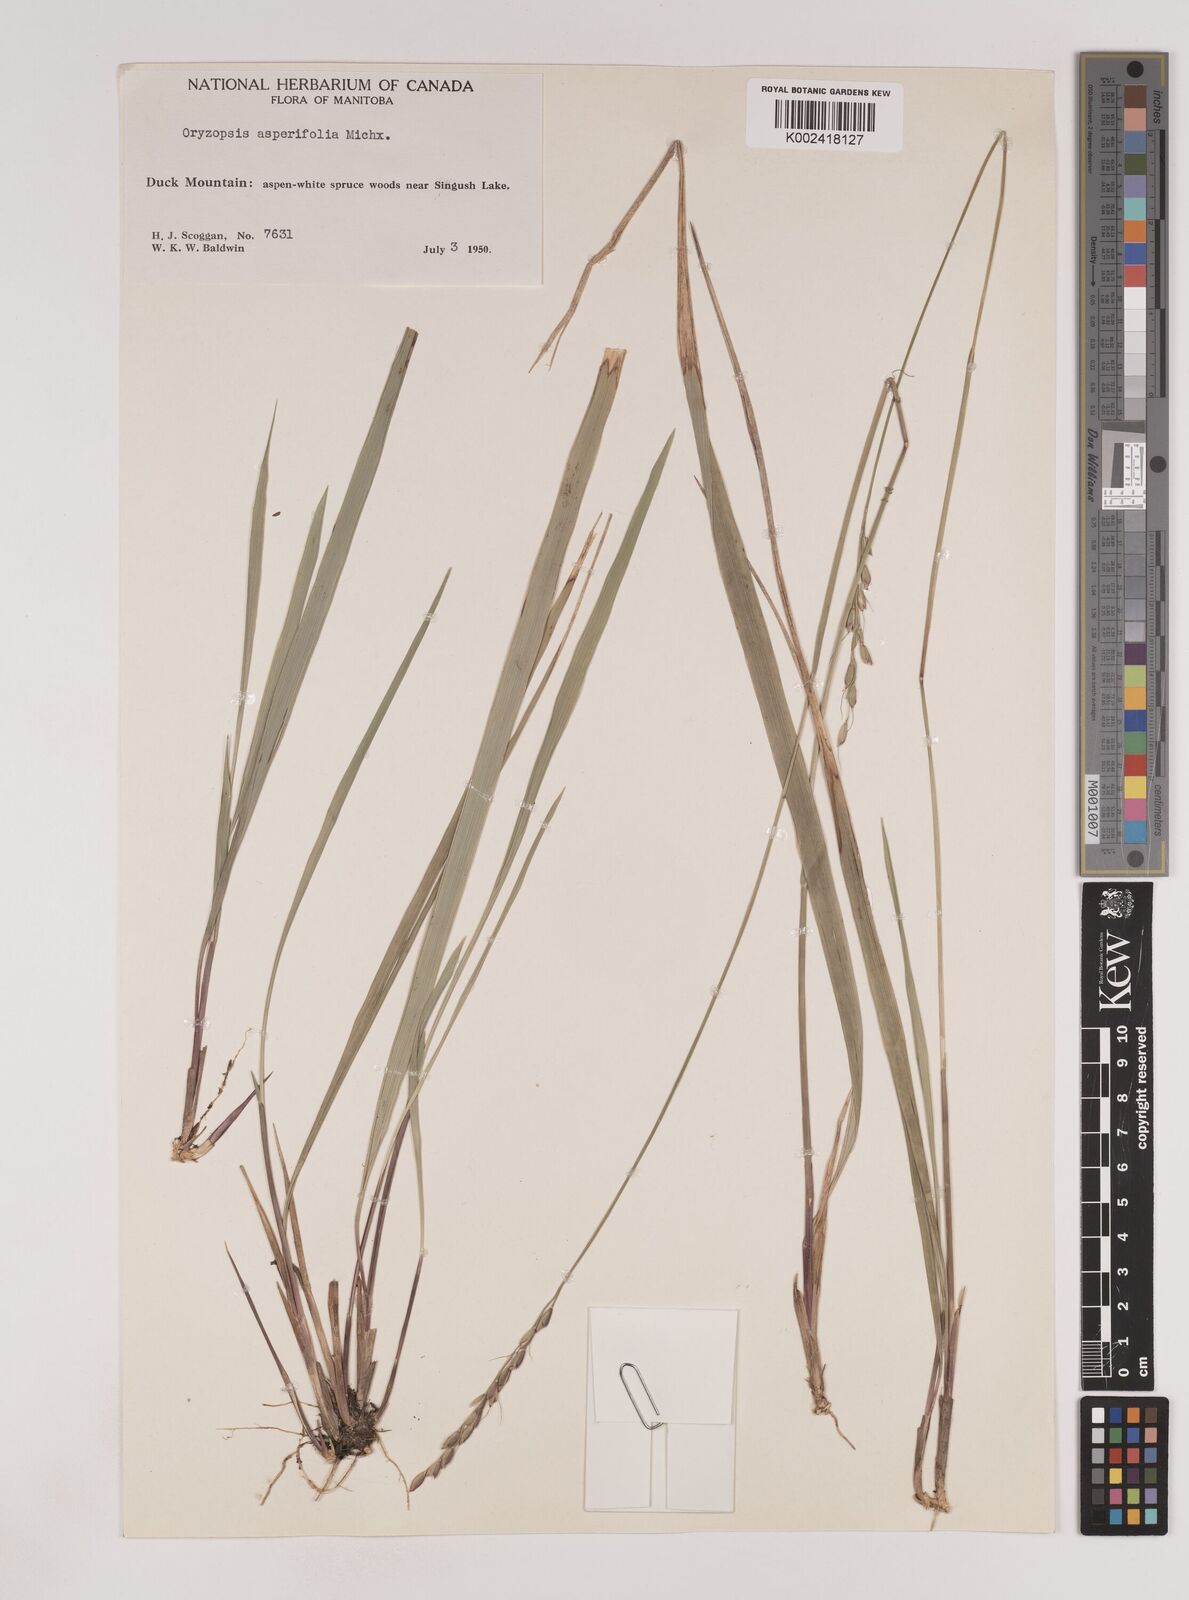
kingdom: Plantae
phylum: Tracheophyta
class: Liliopsida
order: Poales
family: Poaceae
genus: Oryzopsis
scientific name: Oryzopsis asperifolia
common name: Rough-leaved mountain rice
